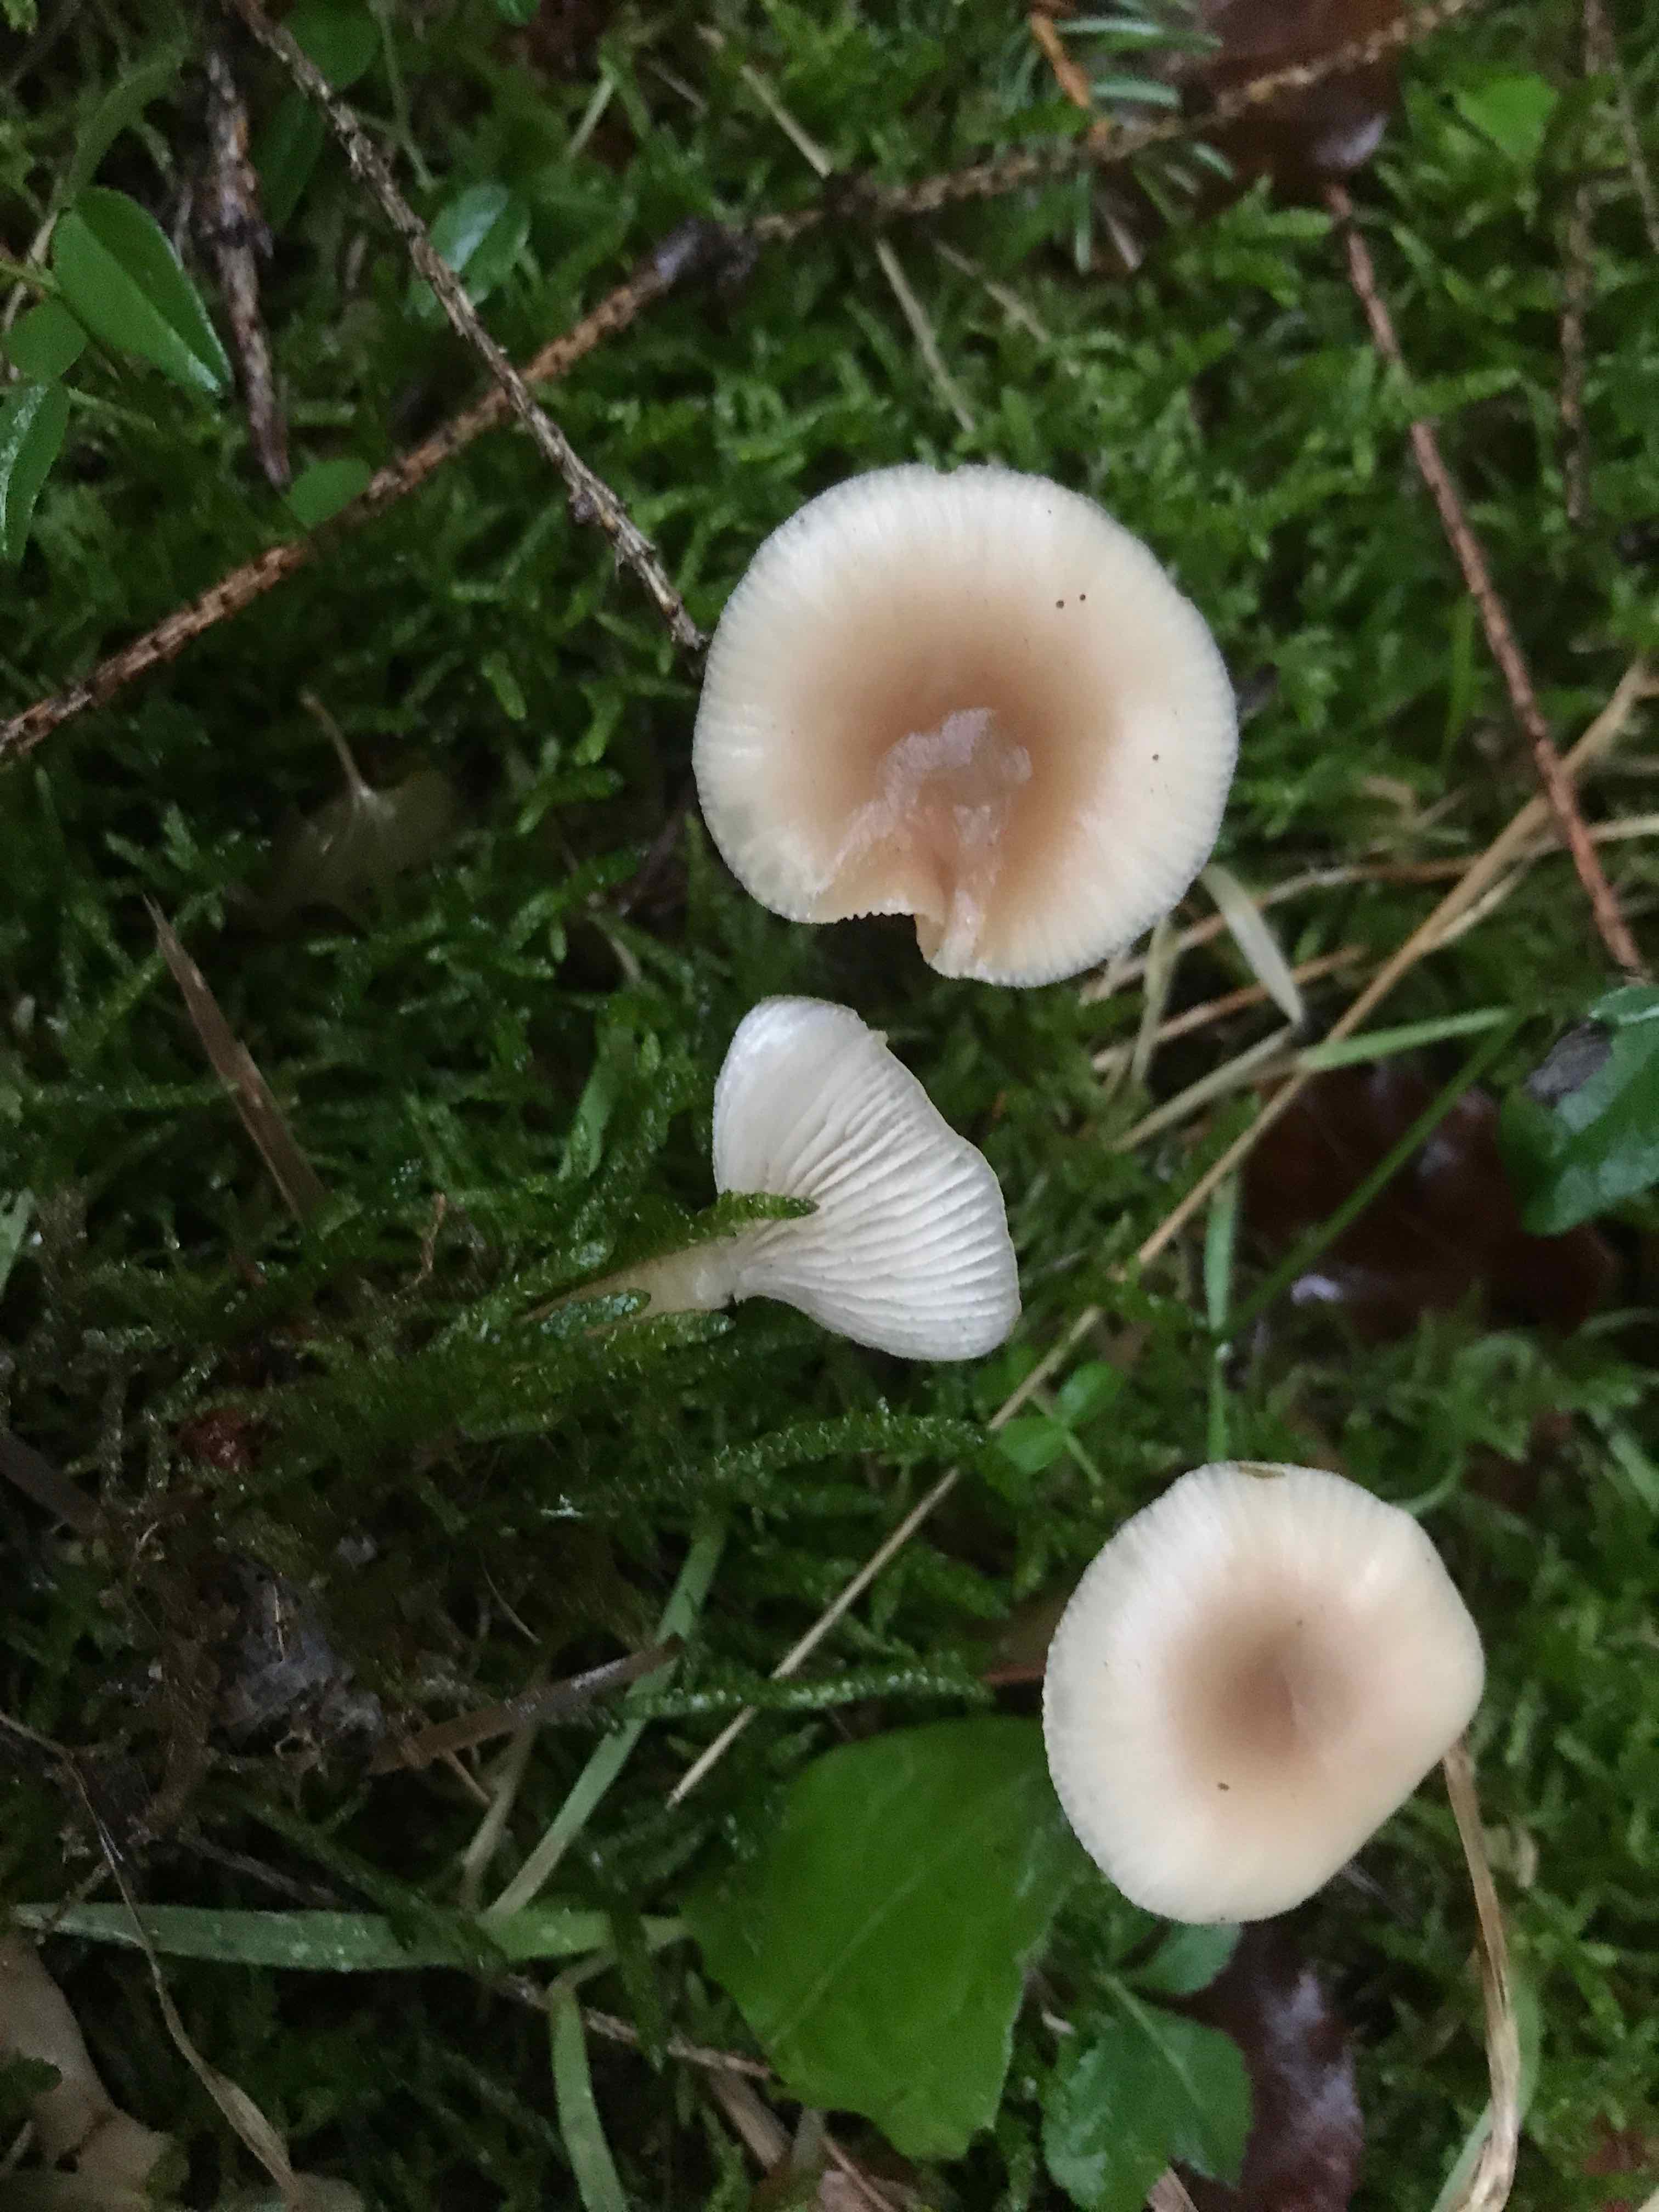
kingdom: Fungi
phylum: Basidiomycota
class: Agaricomycetes
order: Agaricales
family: Tricholomataceae
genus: Clitocybe
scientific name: Clitocybe fragrans
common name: vellugtende tragthat
